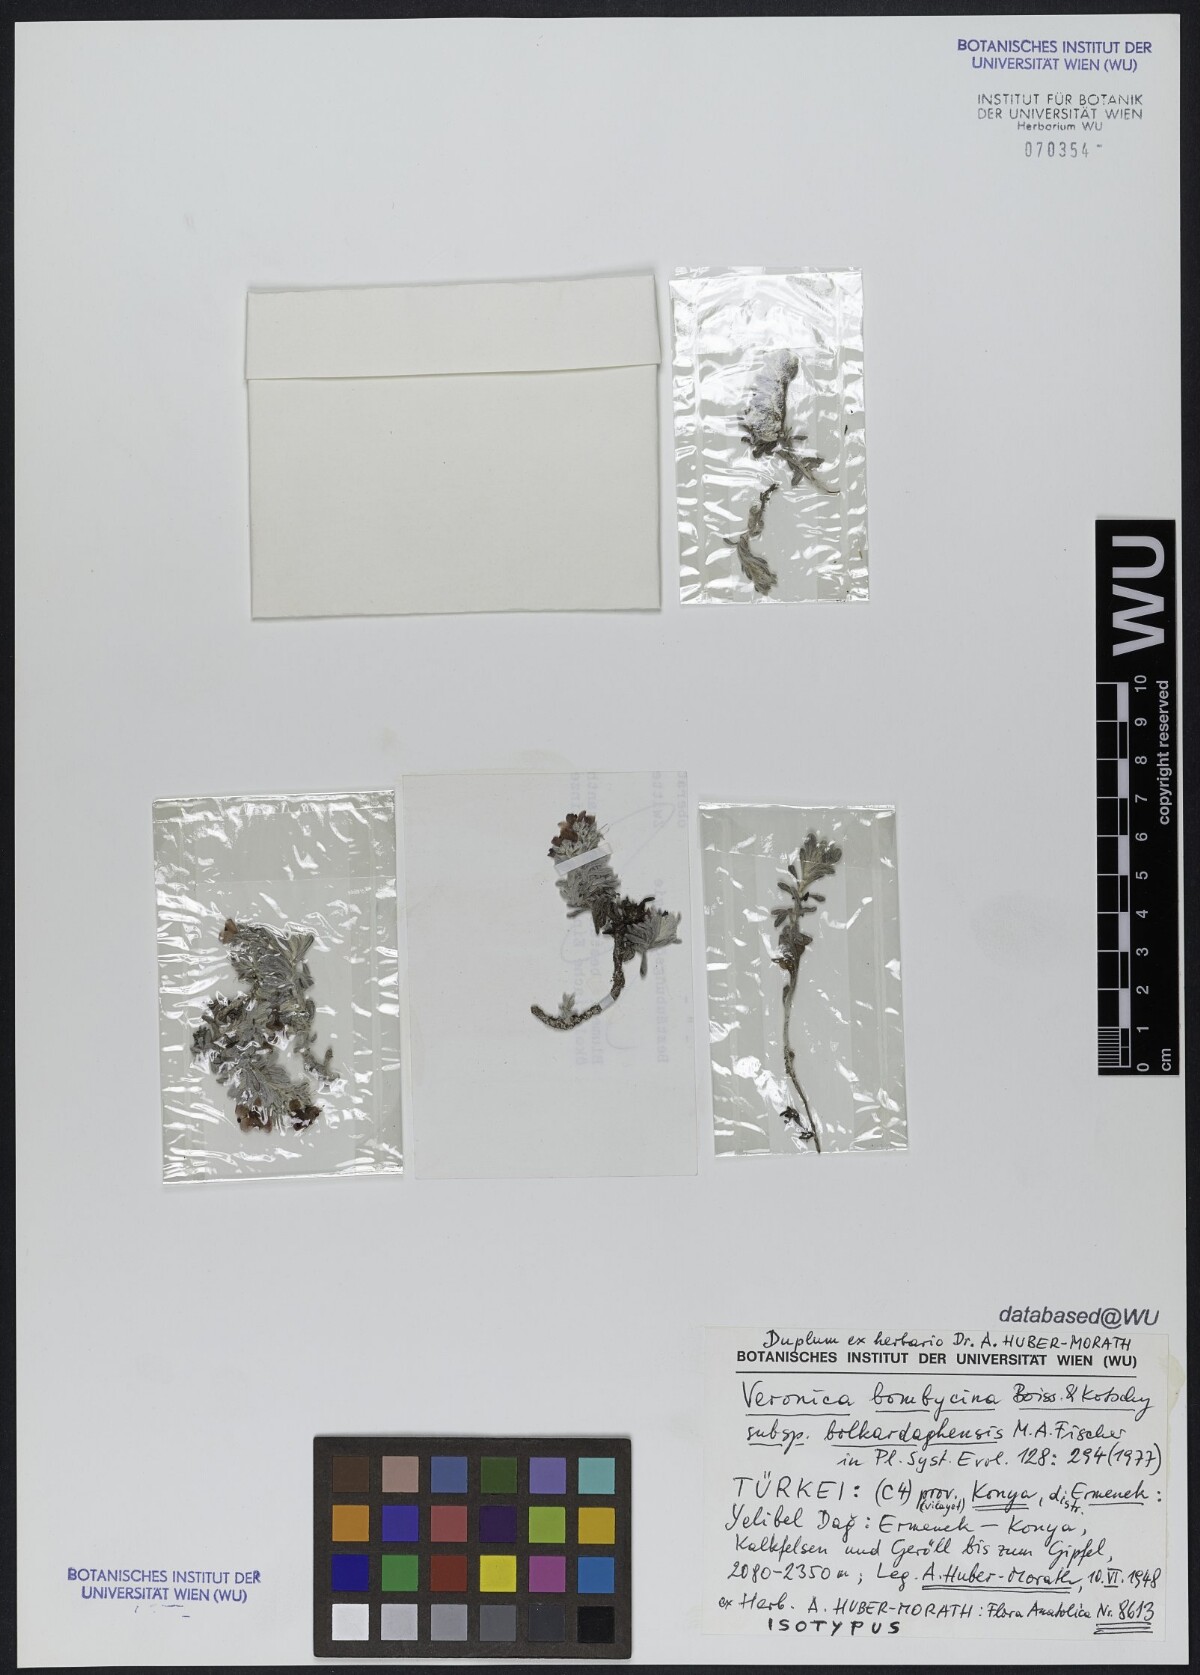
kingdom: Plantae
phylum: Tracheophyta
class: Magnoliopsida
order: Lamiales
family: Plantaginaceae
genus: Veronica
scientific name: Veronica bolkardaghensis
